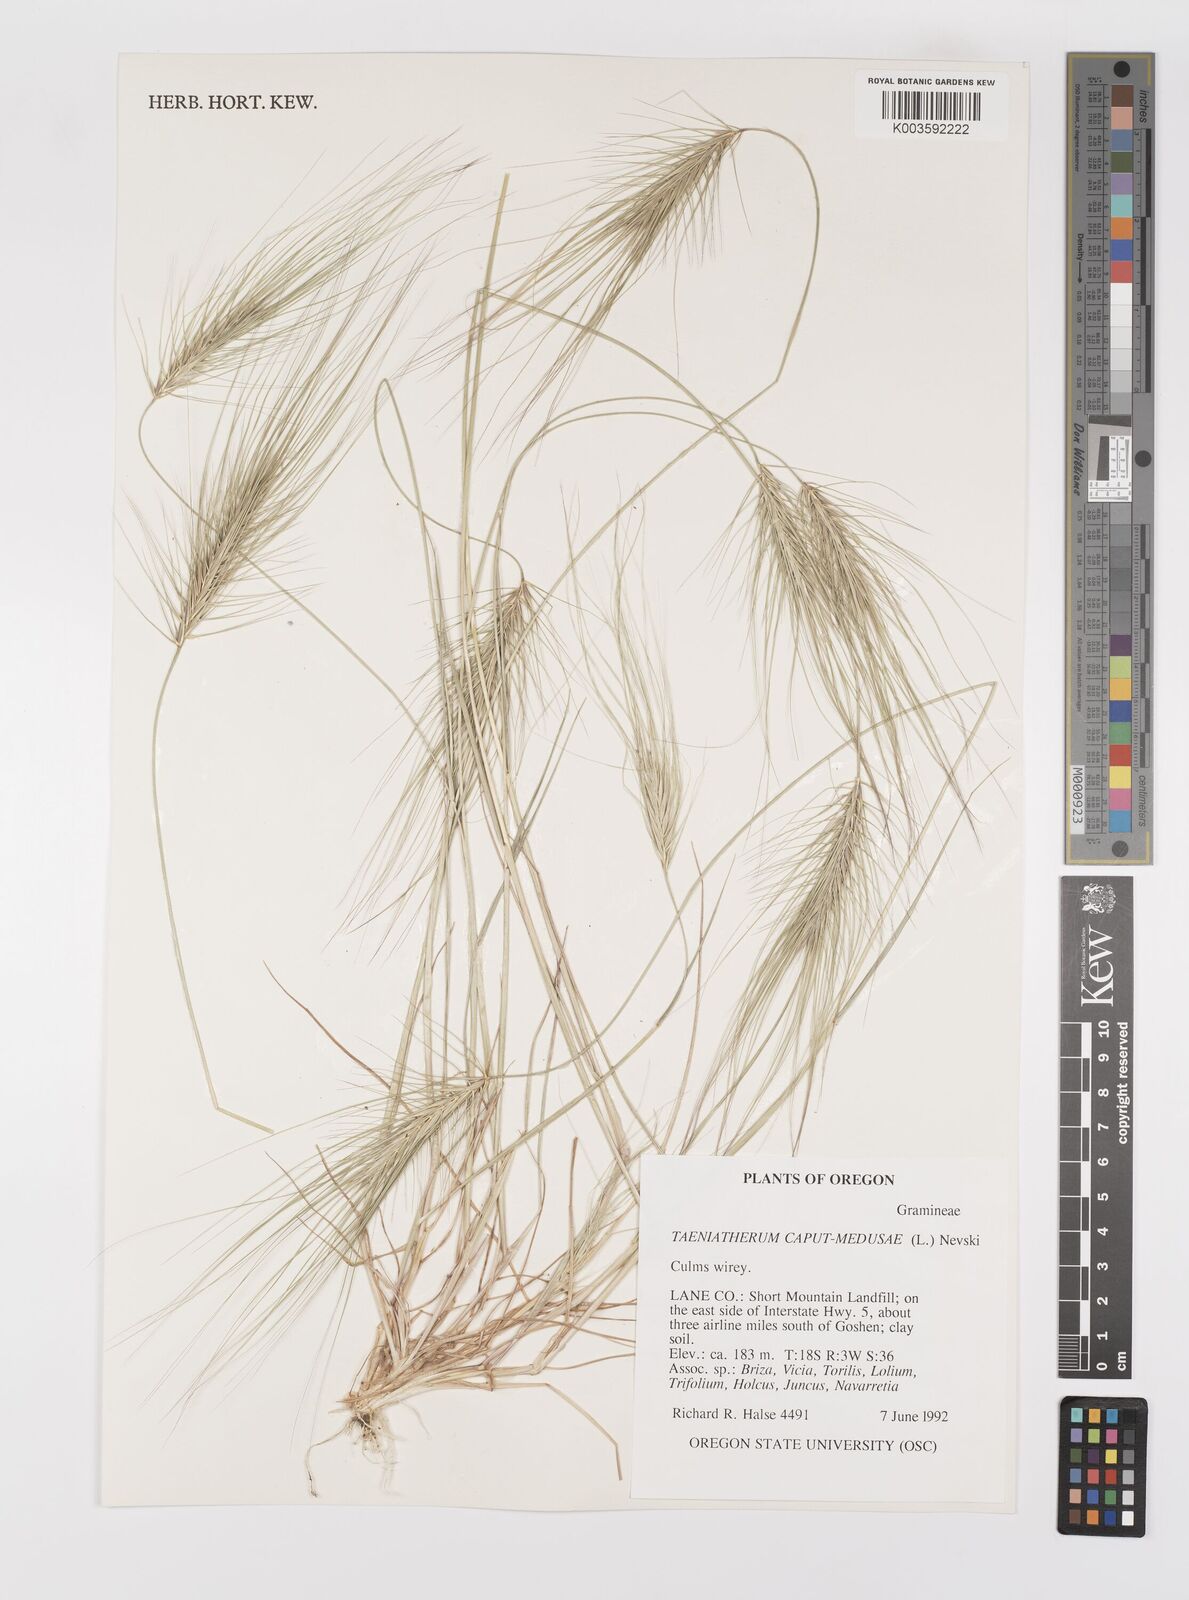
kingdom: Plantae
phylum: Tracheophyta
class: Liliopsida
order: Poales
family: Poaceae
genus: Taeniatherum
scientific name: Taeniatherum caput-medusae
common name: Medusahead
